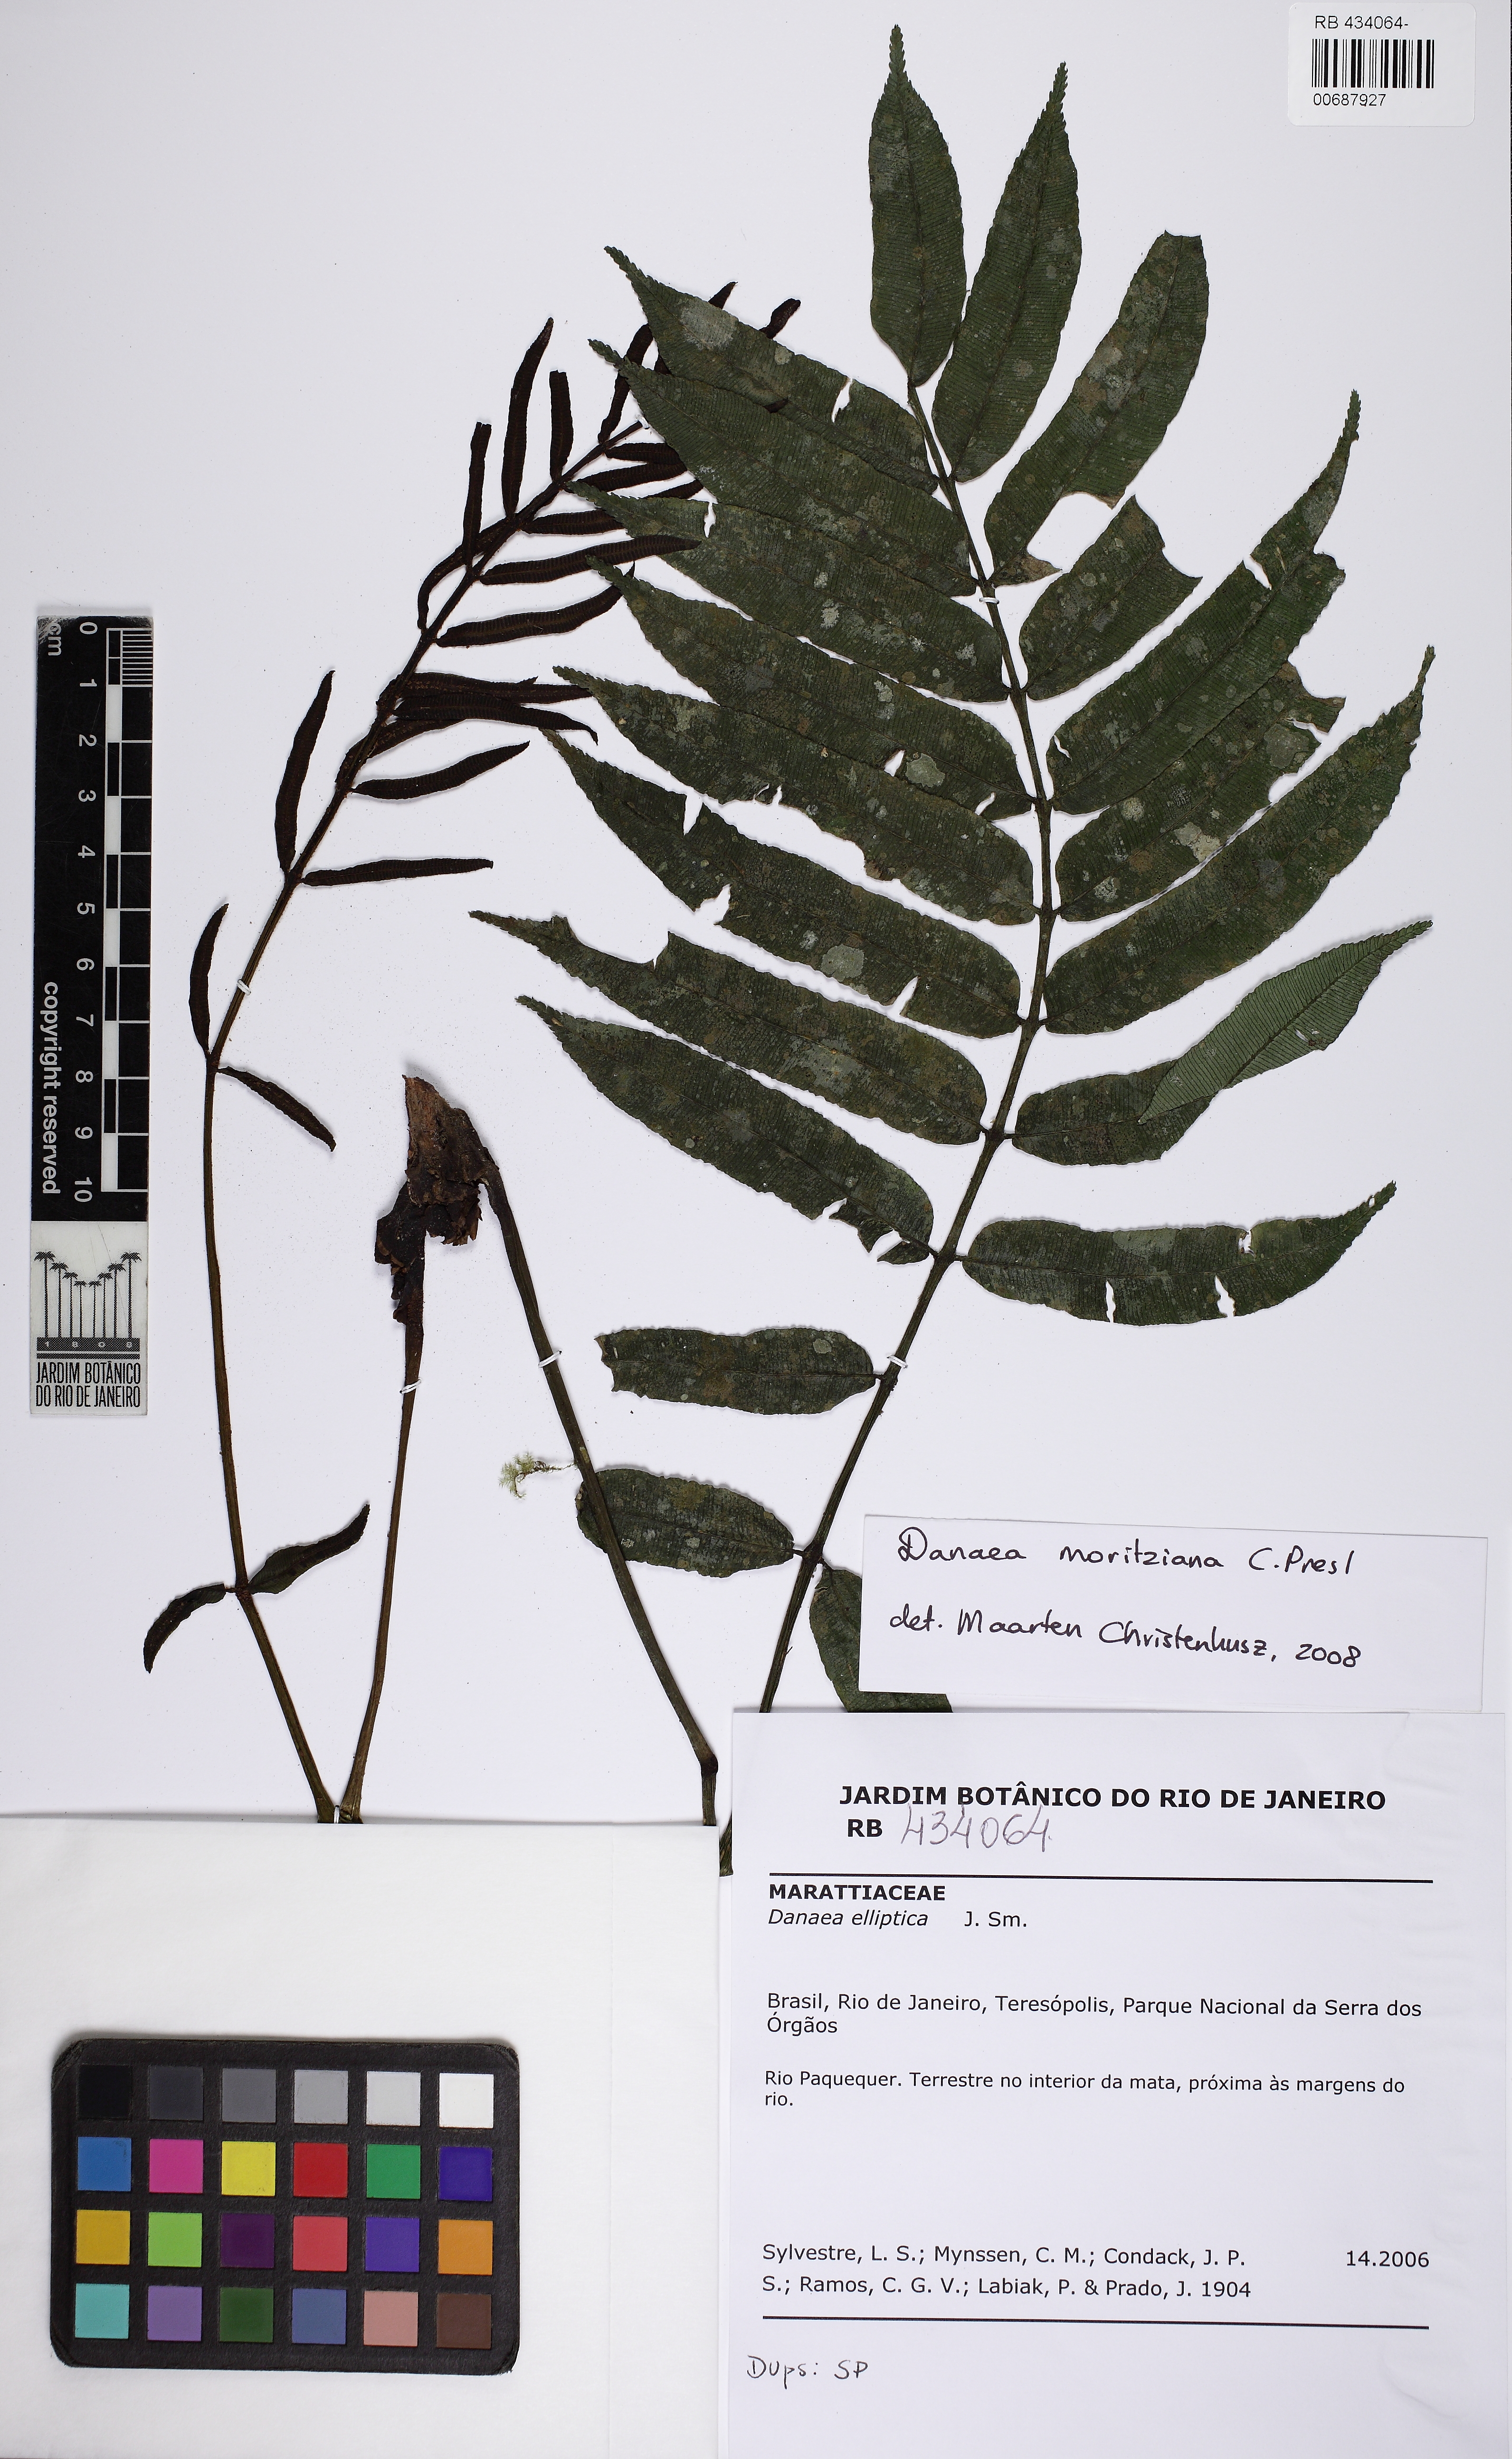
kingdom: Plantae
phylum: Tracheophyta
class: Polypodiopsida
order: Marattiales
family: Marattiaceae
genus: Danaea
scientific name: Danaea moritziana
